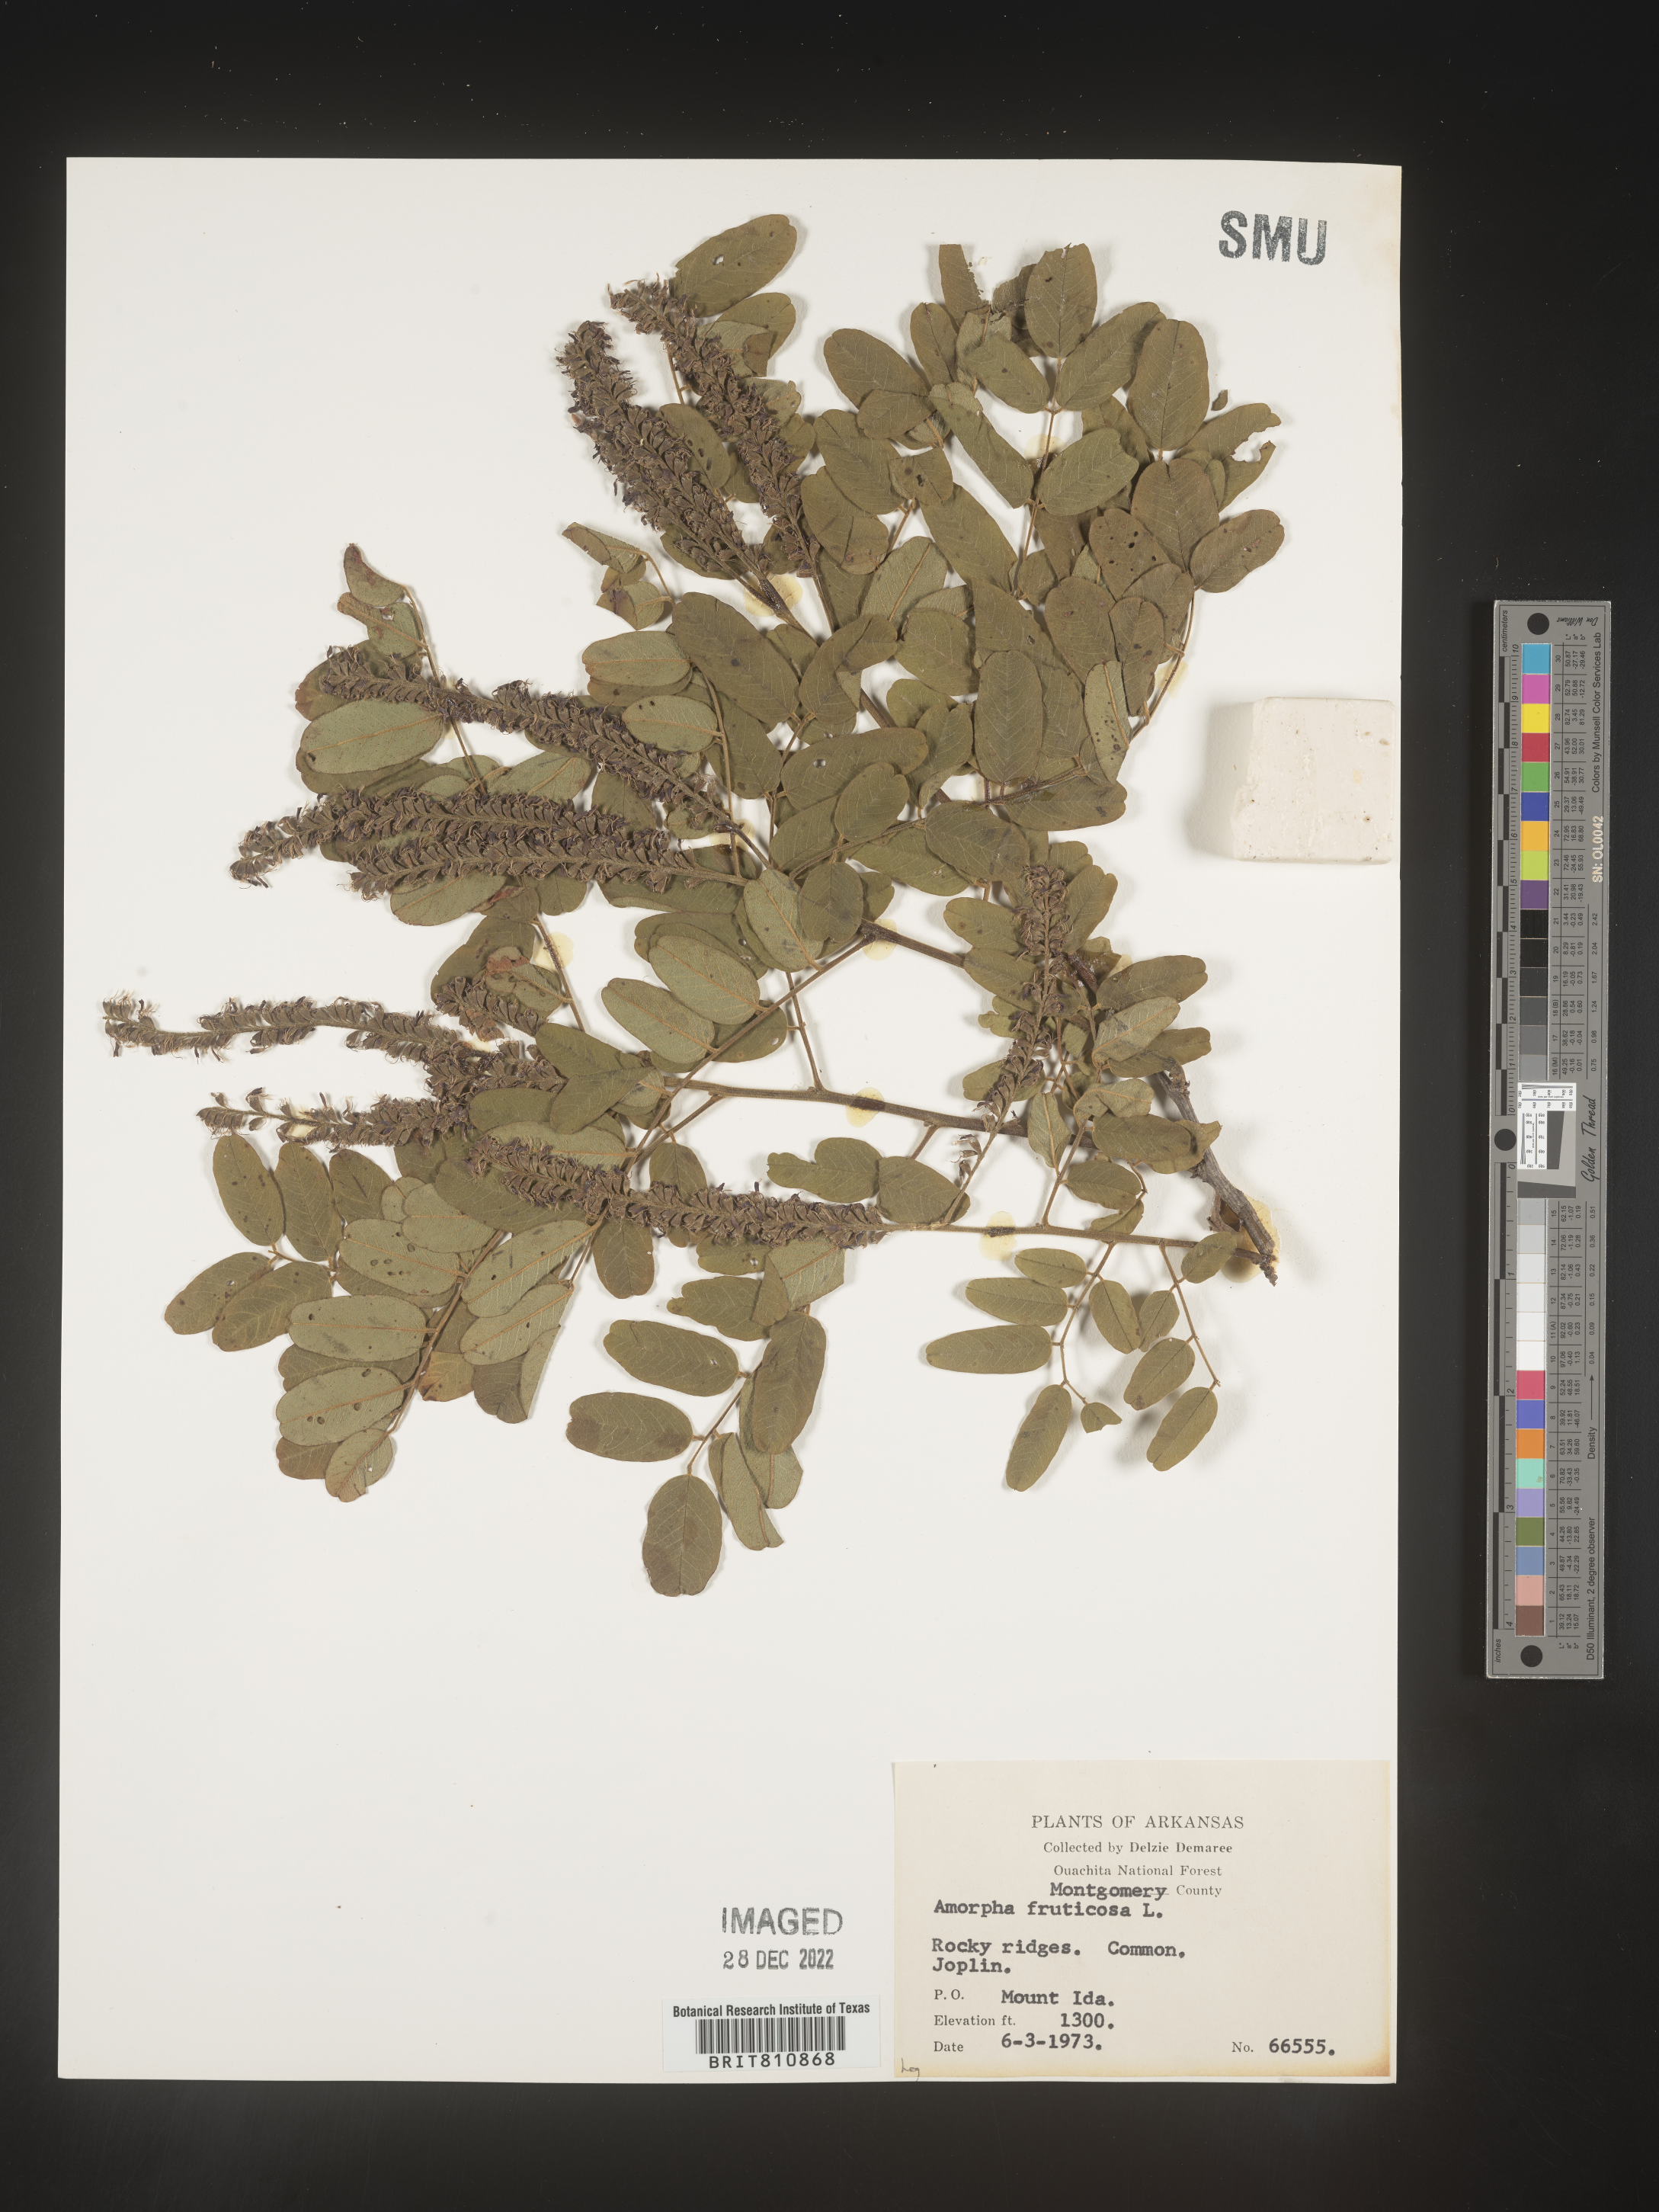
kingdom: Plantae
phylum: Tracheophyta
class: Magnoliopsida
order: Fabales
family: Fabaceae
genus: Amorpha
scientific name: Amorpha fruticosa
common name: False indigo
